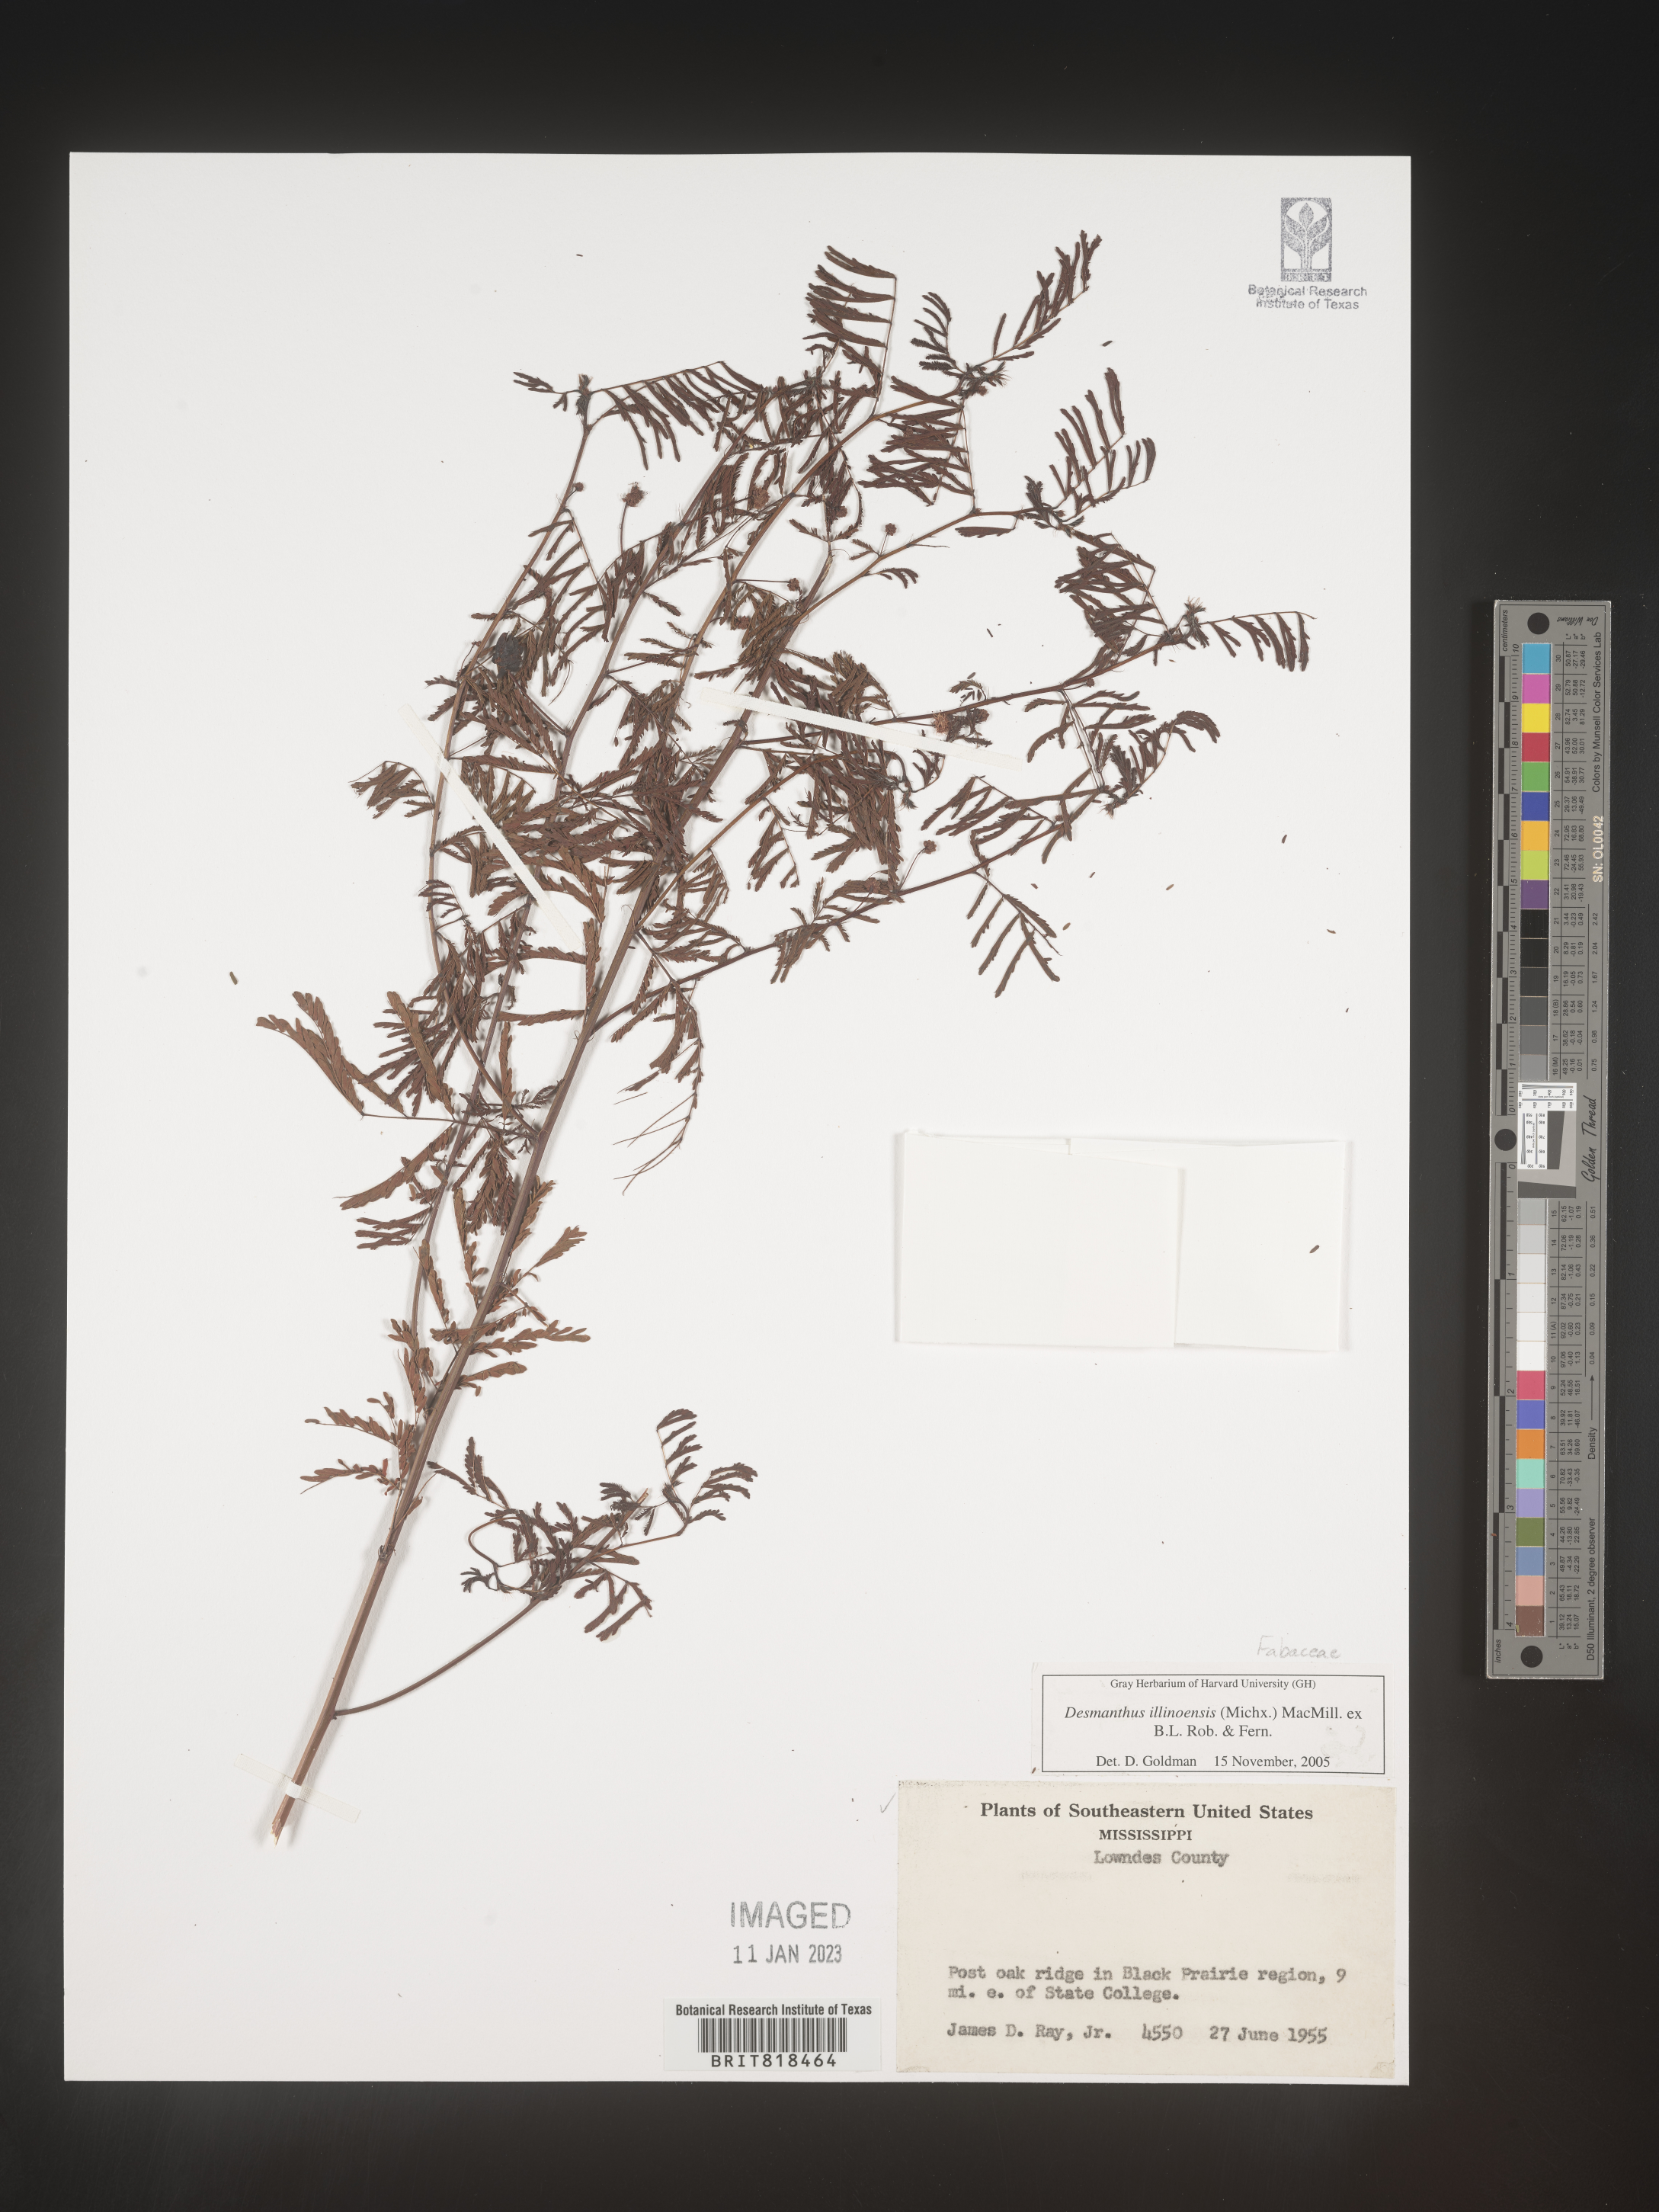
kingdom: Plantae
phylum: Tracheophyta
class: Magnoliopsida
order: Fabales
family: Fabaceae
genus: Desmanthus
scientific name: Desmanthus illinoensis
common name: Illinois bundle-flower
